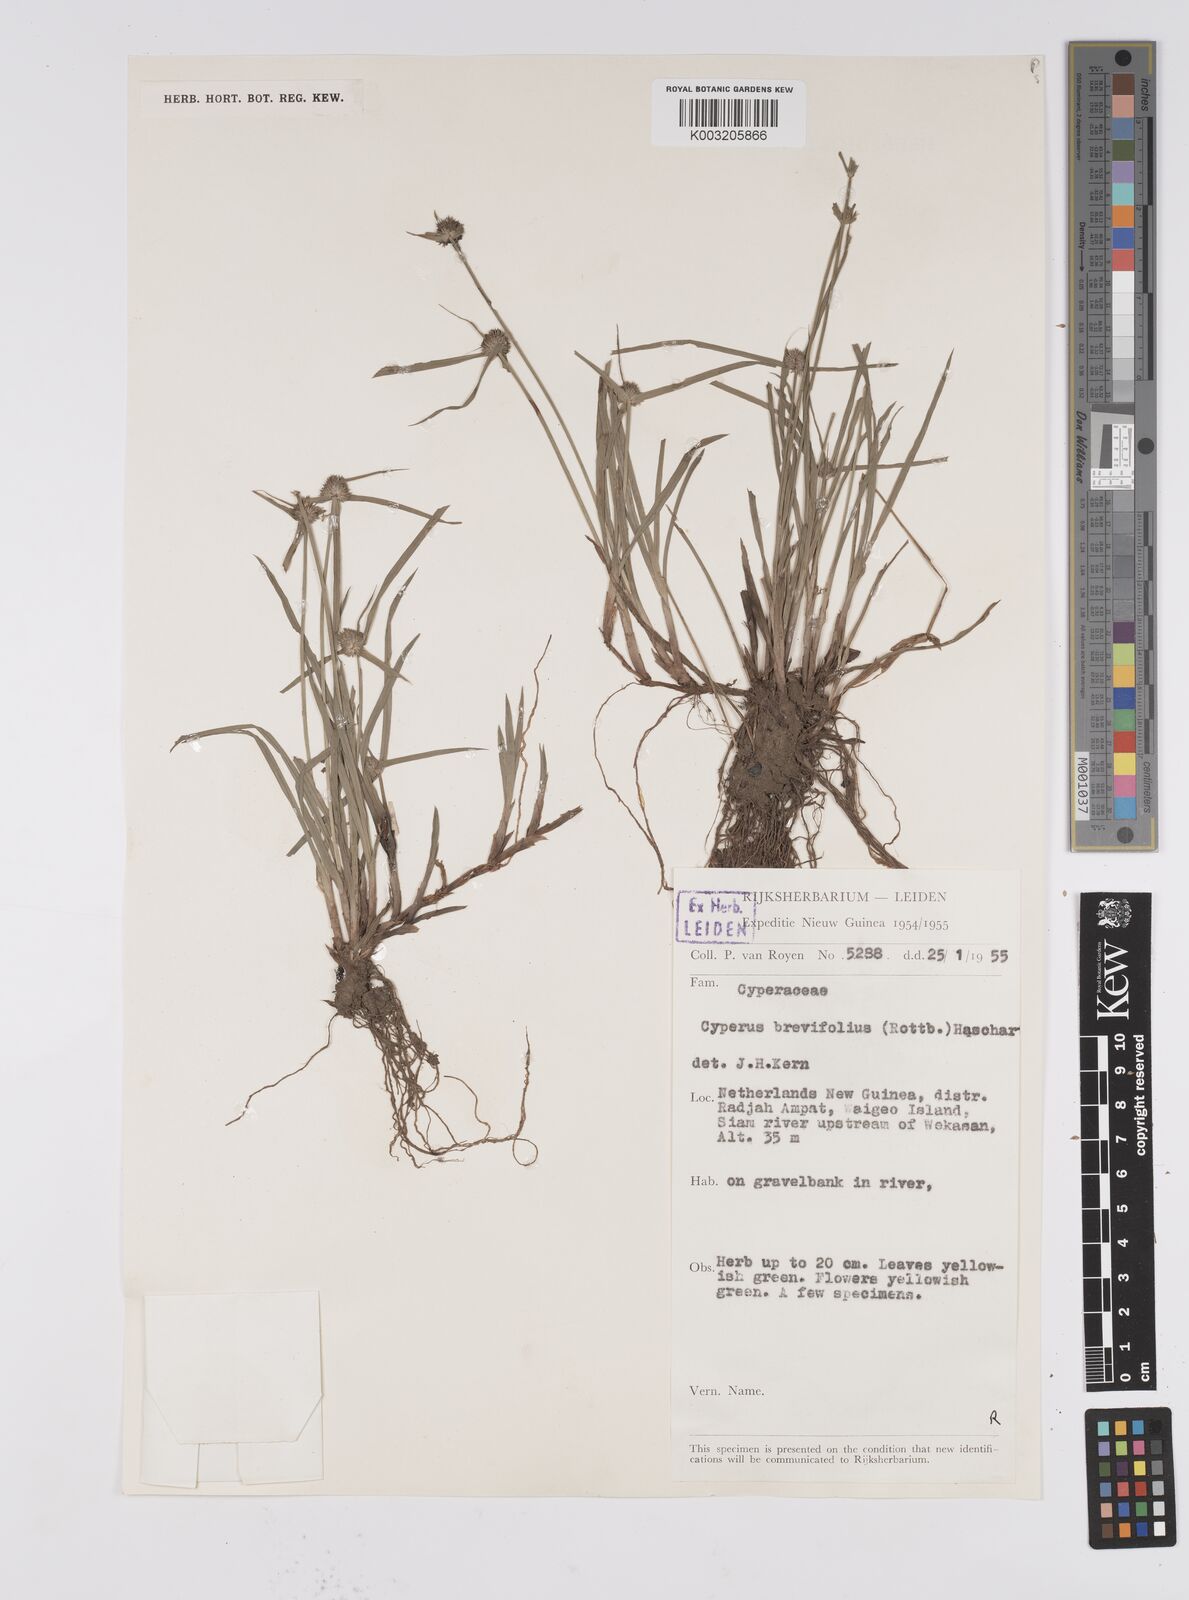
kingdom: Plantae
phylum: Tracheophyta
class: Liliopsida
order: Poales
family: Cyperaceae
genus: Cyperus
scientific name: Cyperus brevifolius
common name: Globe kyllinga
